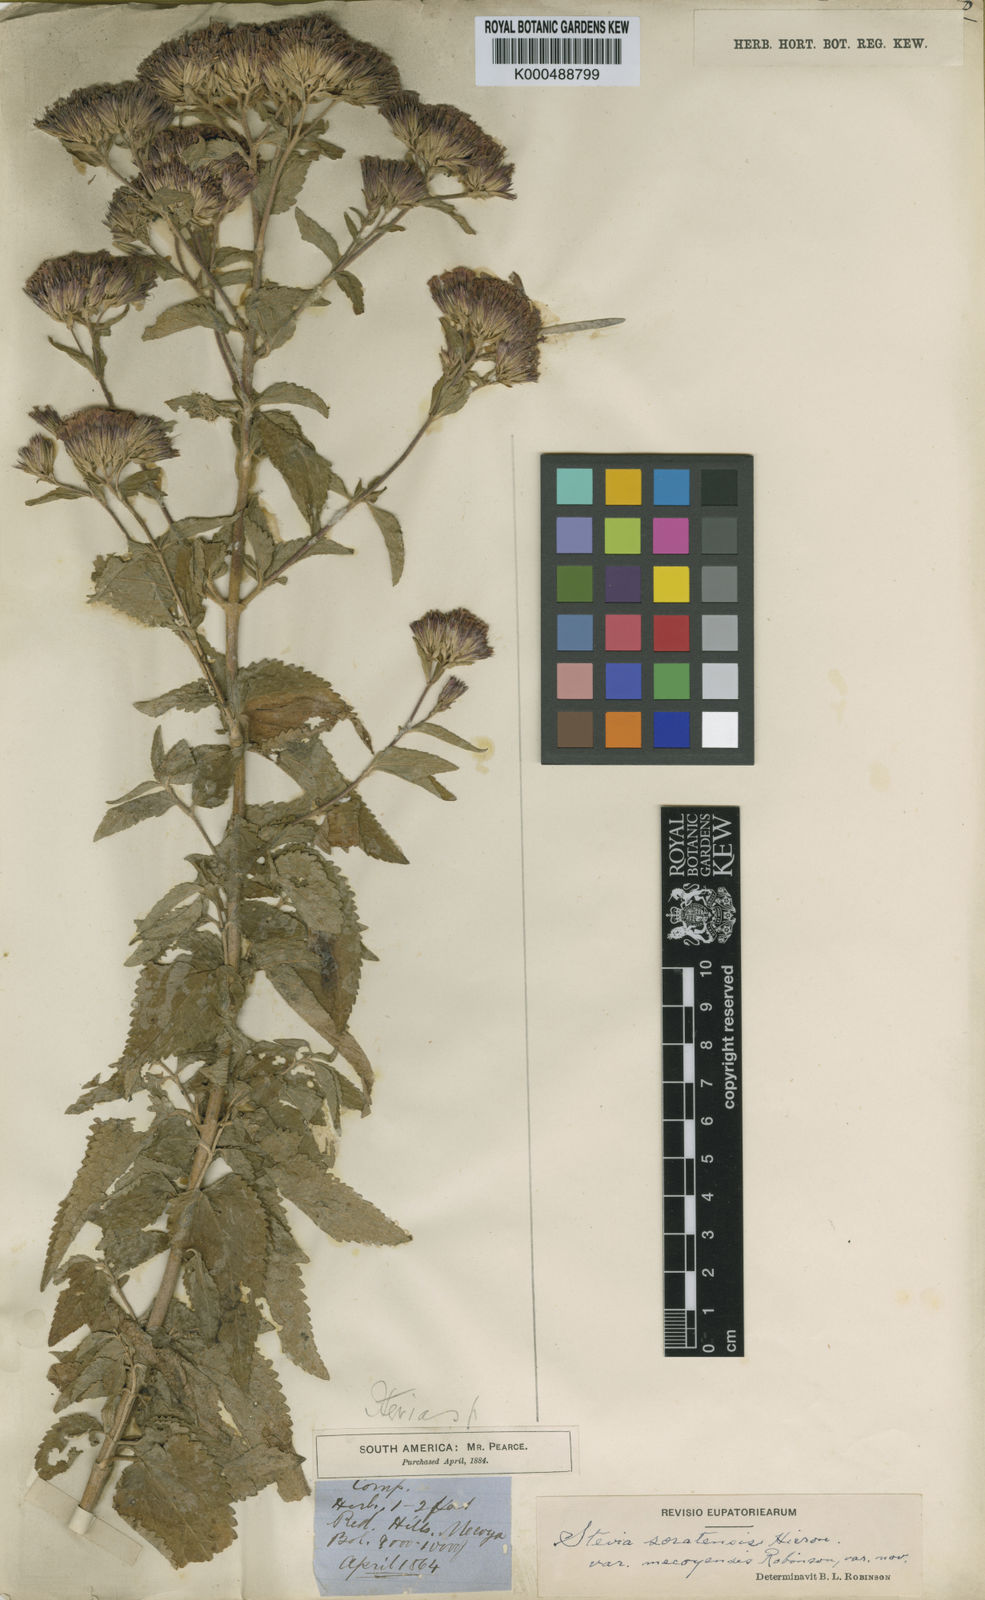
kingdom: Plantae
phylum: Tracheophyta
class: Magnoliopsida
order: Asterales
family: Asteraceae
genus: Stevia
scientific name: Stevia soratensis
